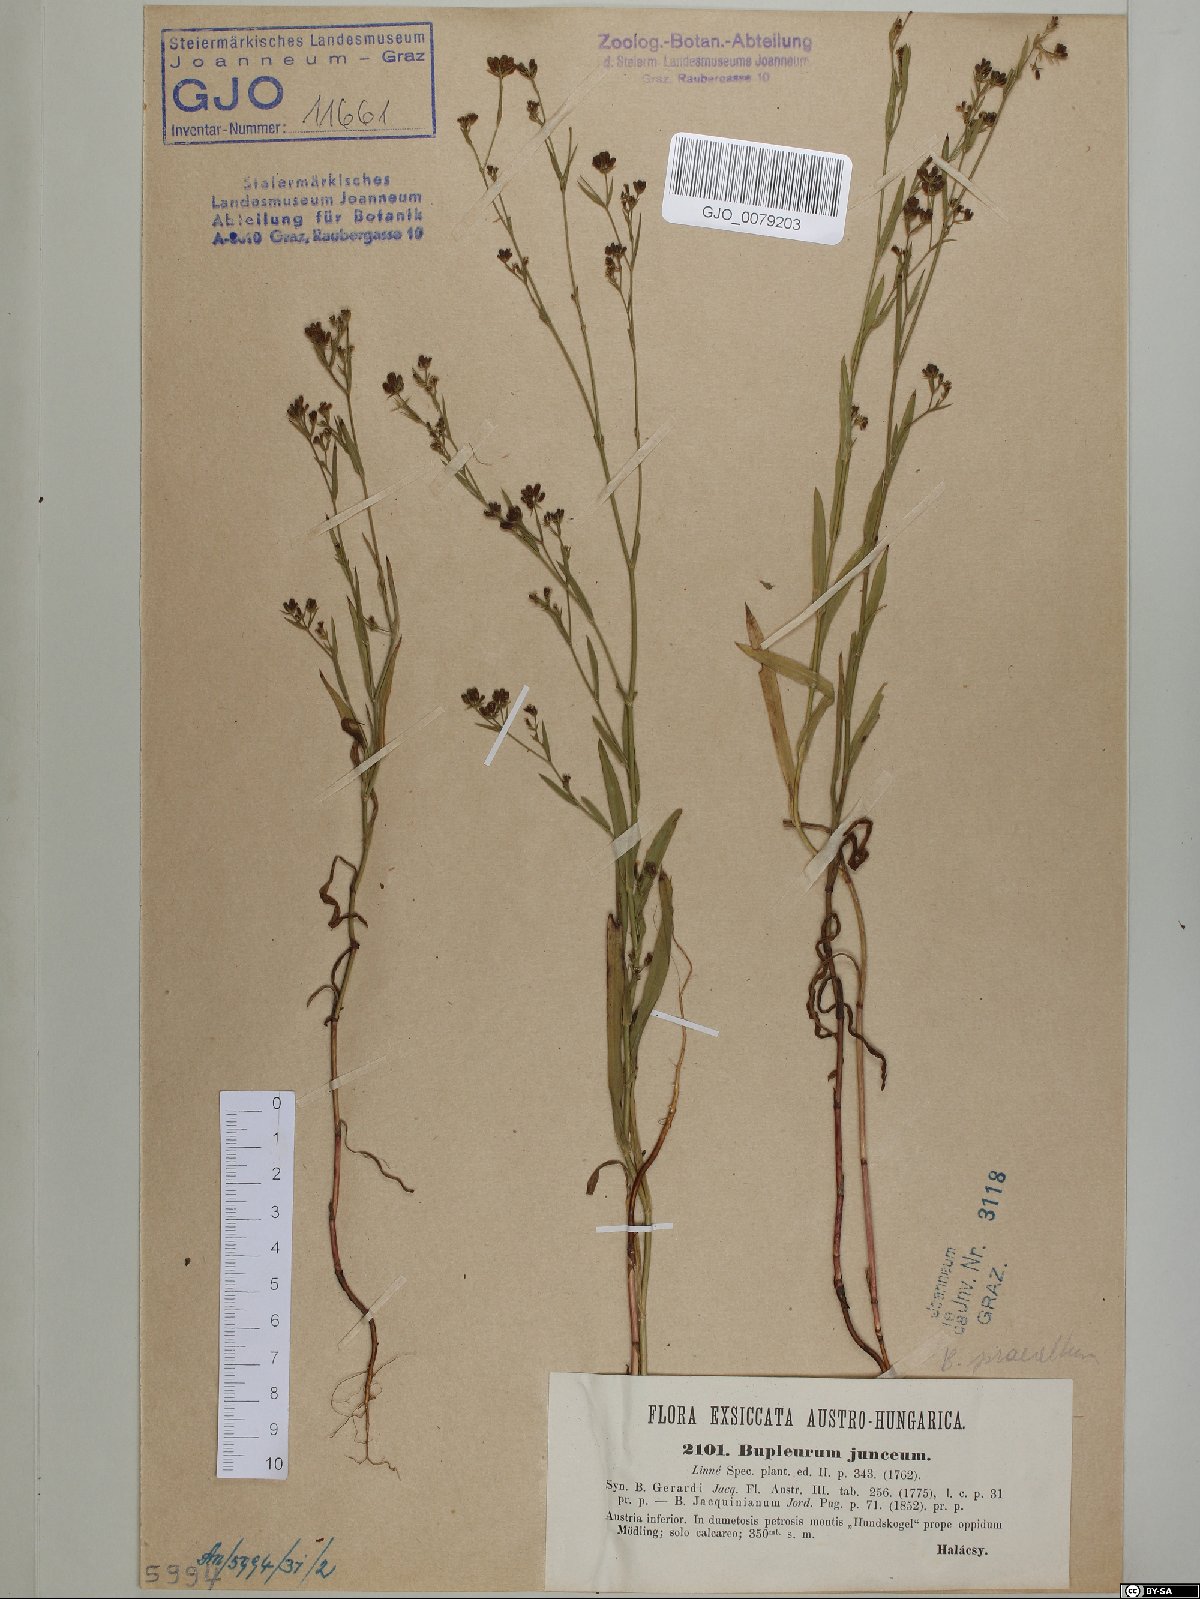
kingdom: Plantae
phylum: Tracheophyta
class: Magnoliopsida
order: Apiales
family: Apiaceae
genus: Bupleurum
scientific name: Bupleurum praealtum
